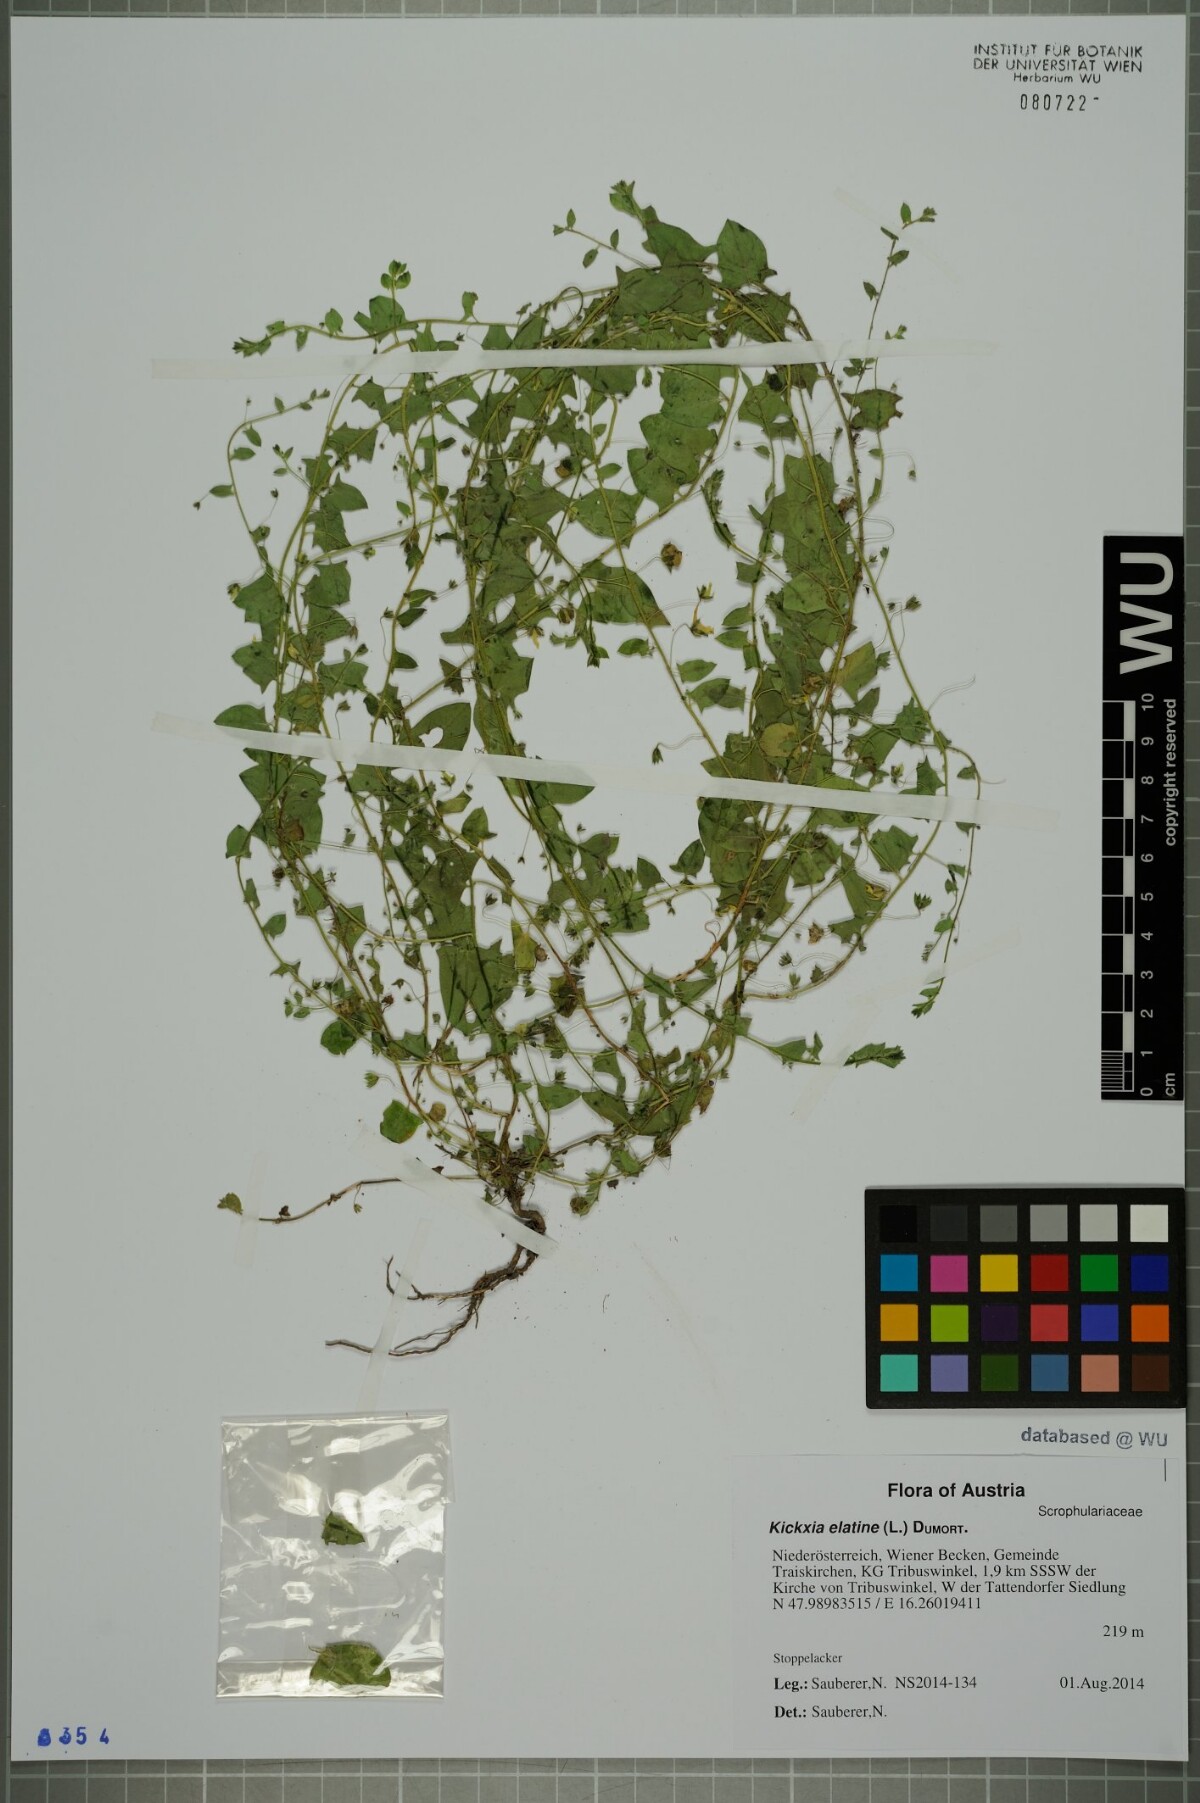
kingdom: Plantae
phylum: Tracheophyta
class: Magnoliopsida
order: Lamiales
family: Plantaginaceae
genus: Kickxia
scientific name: Kickxia elatine
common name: Sharp-leaved fluellen
